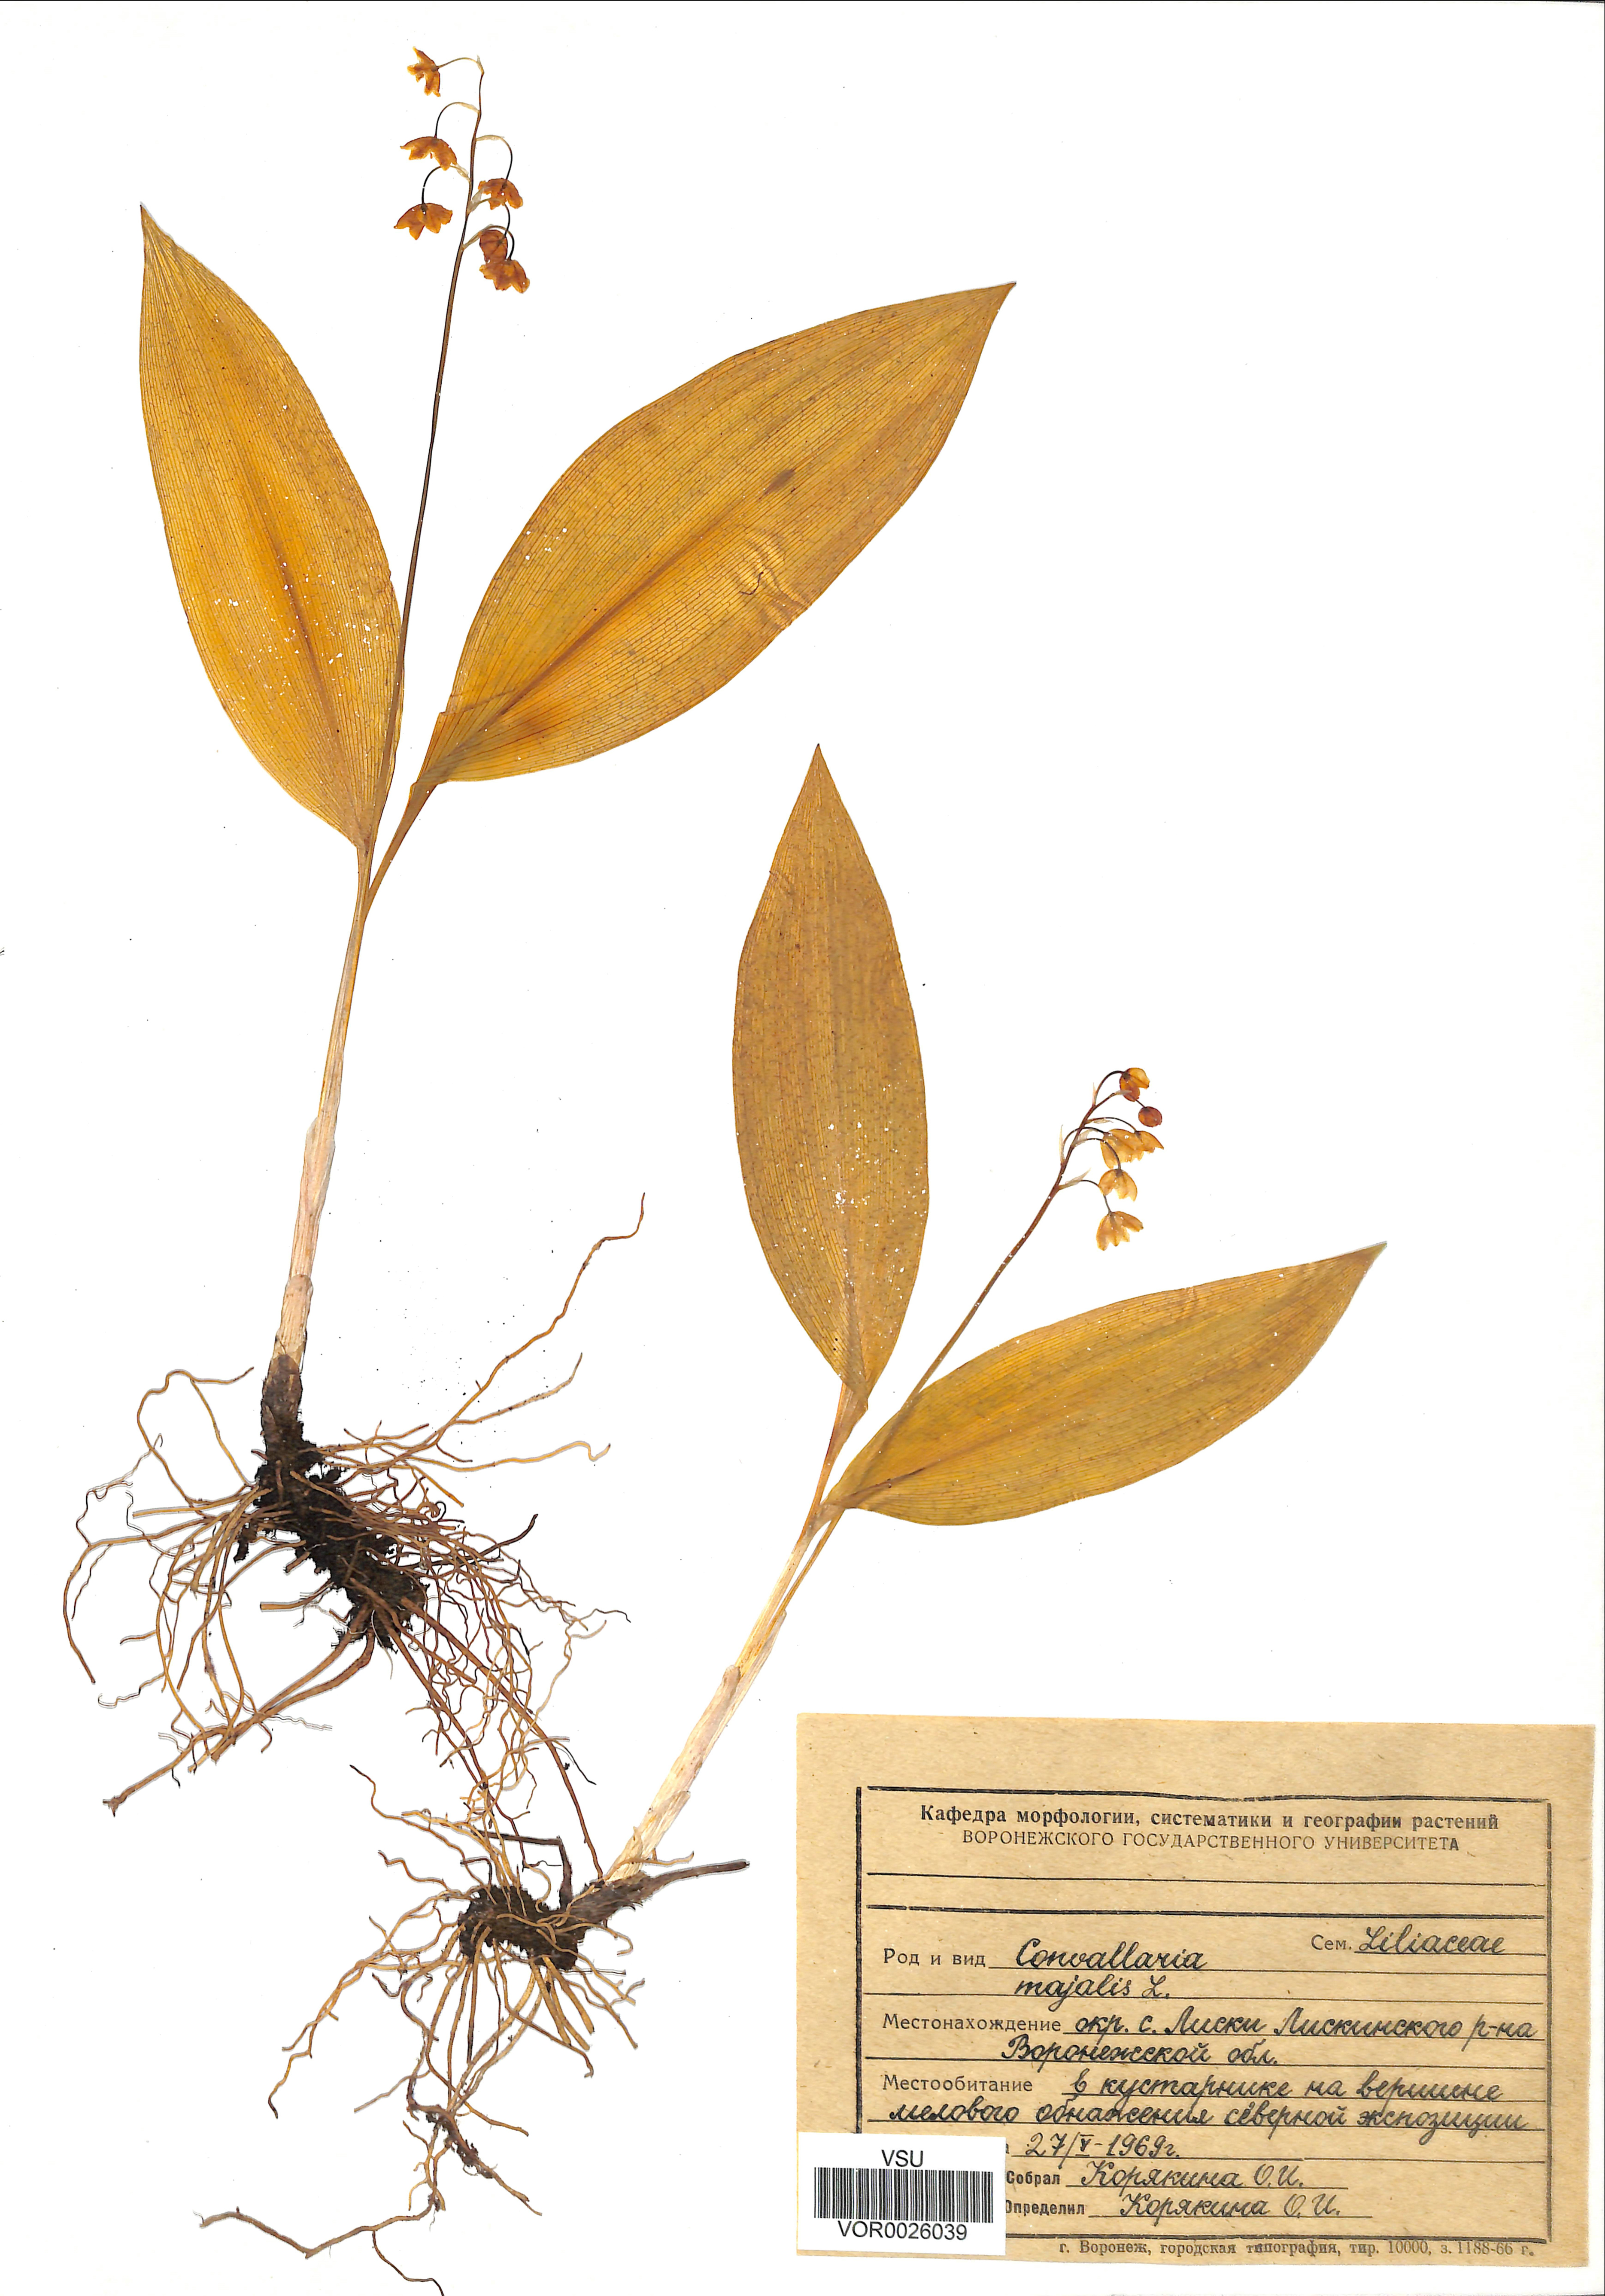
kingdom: Plantae
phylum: Tracheophyta
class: Liliopsida
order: Asparagales
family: Asparagaceae
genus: Convallaria
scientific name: Convallaria majalis
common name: Lily-of-the-valley
